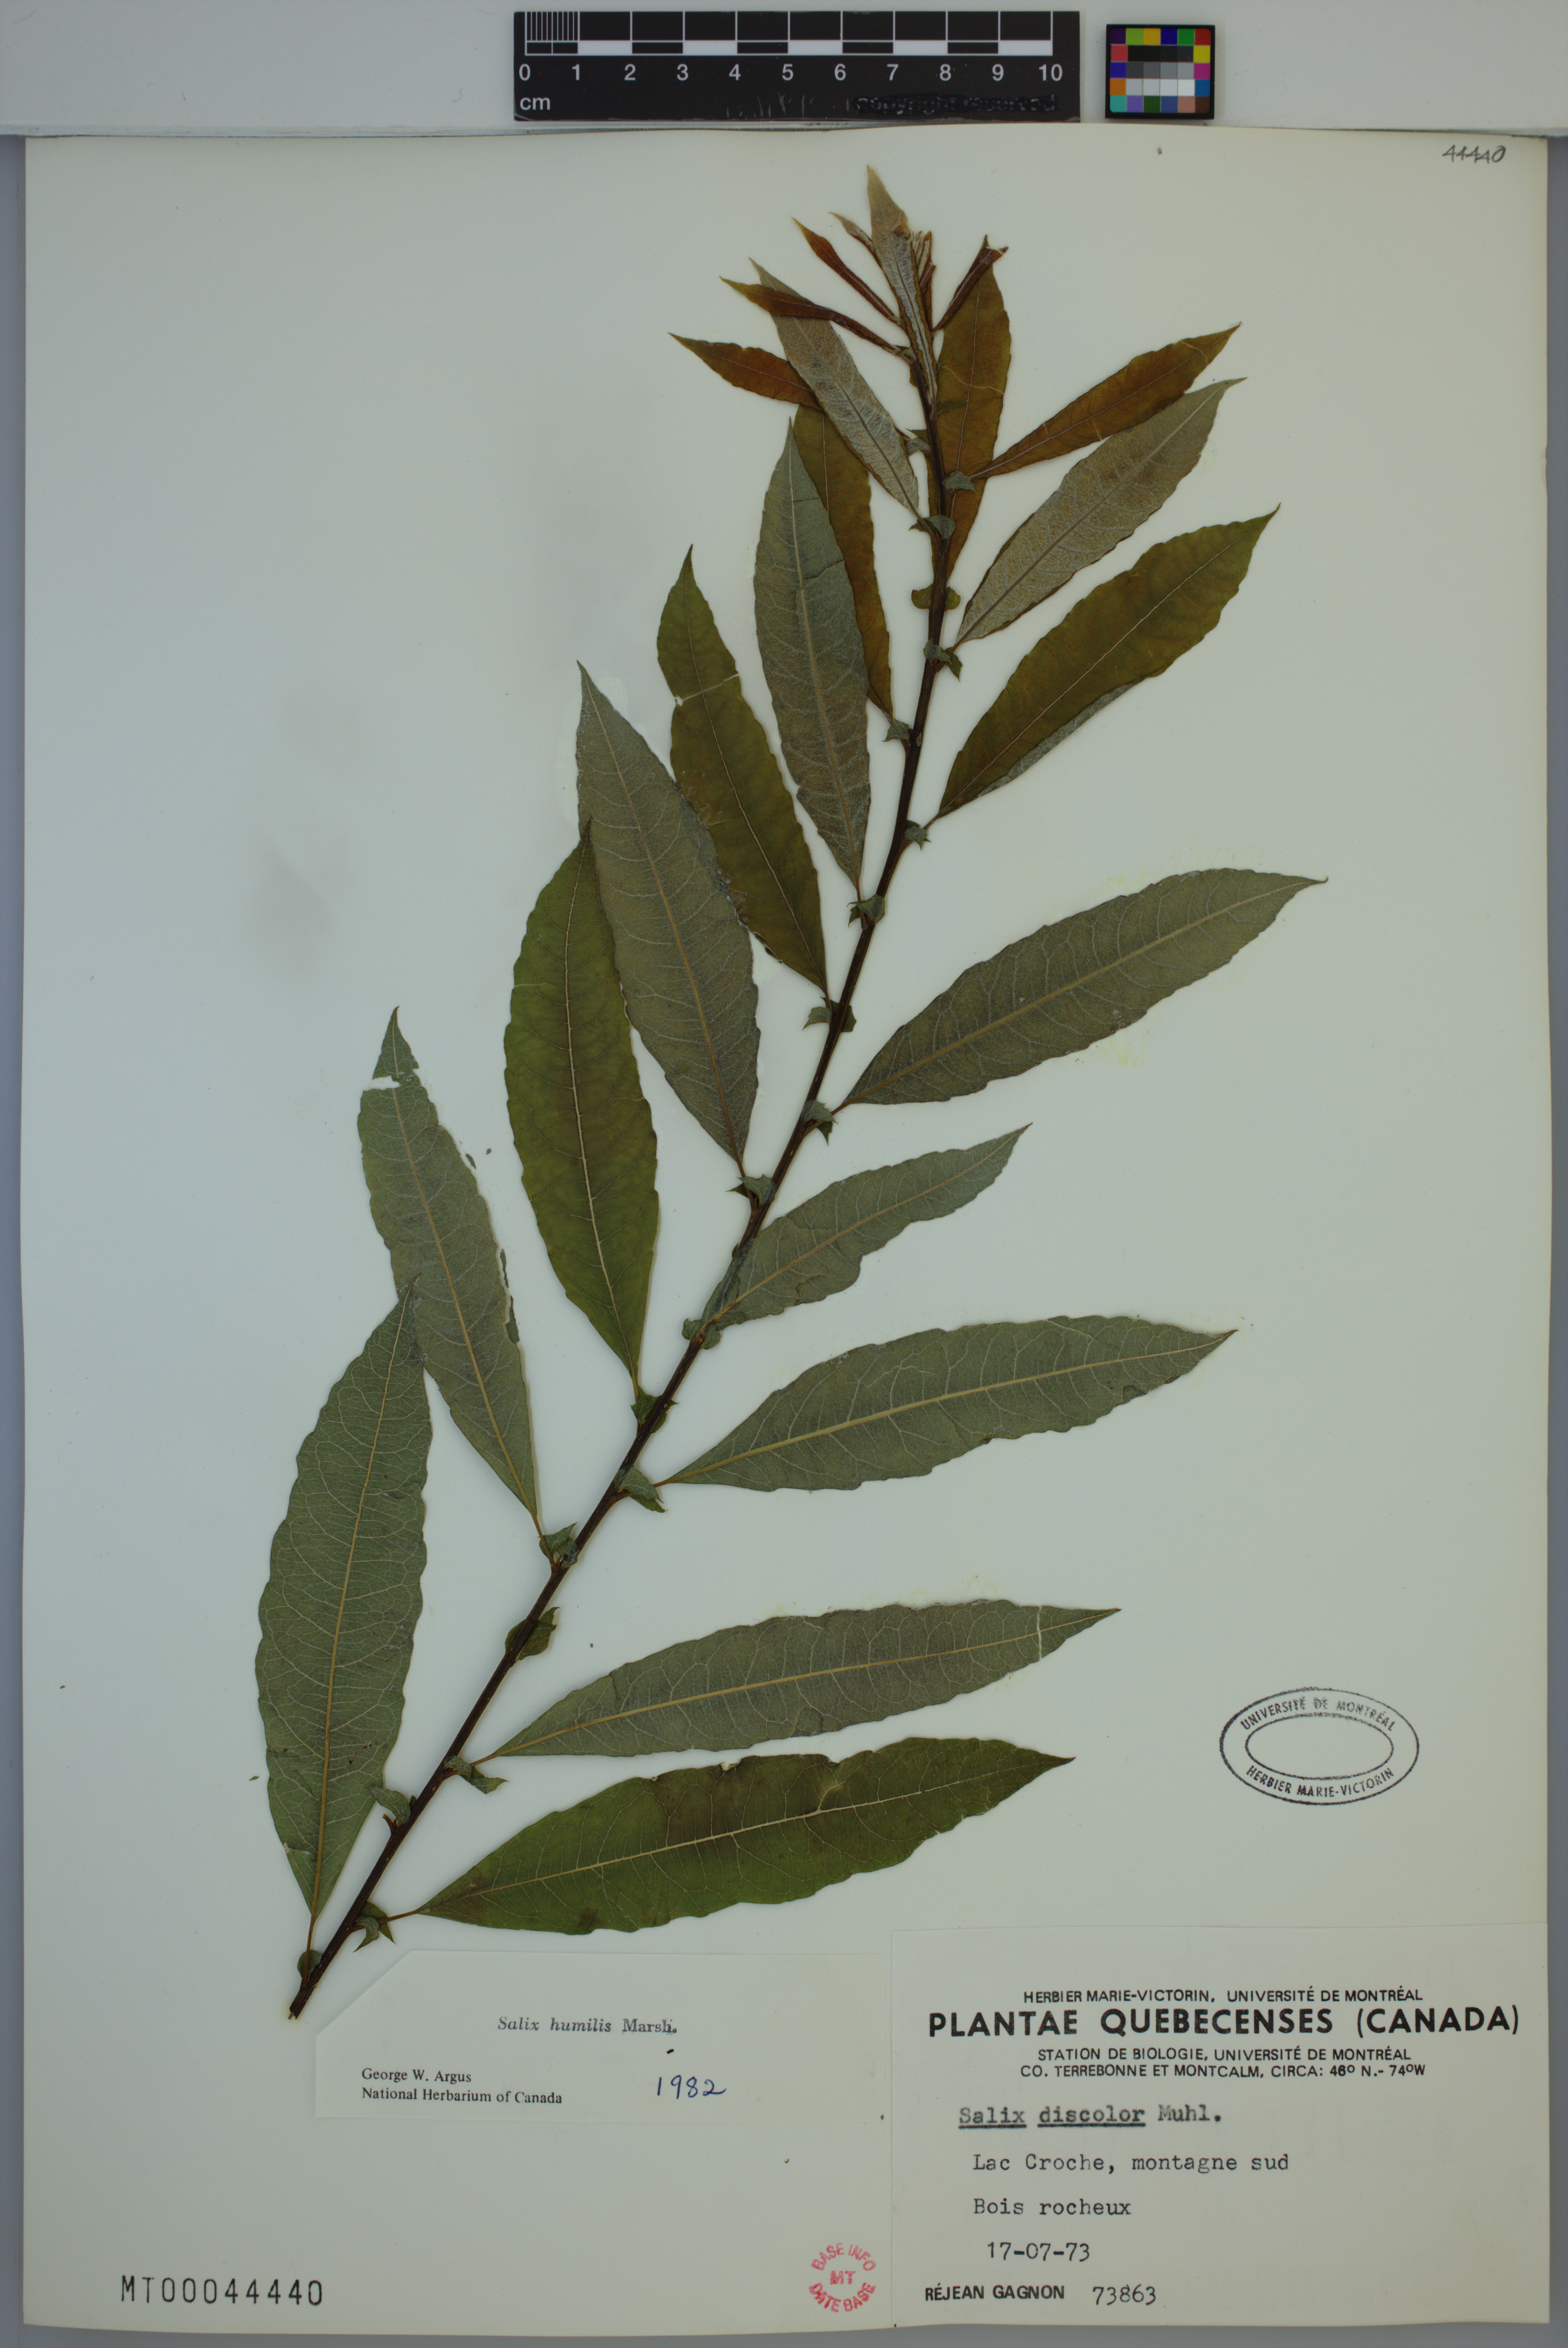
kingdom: Plantae
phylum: Tracheophyta
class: Magnoliopsida
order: Malpighiales
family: Salicaceae
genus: Salix
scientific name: Salix humilis
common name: Prairie willow
